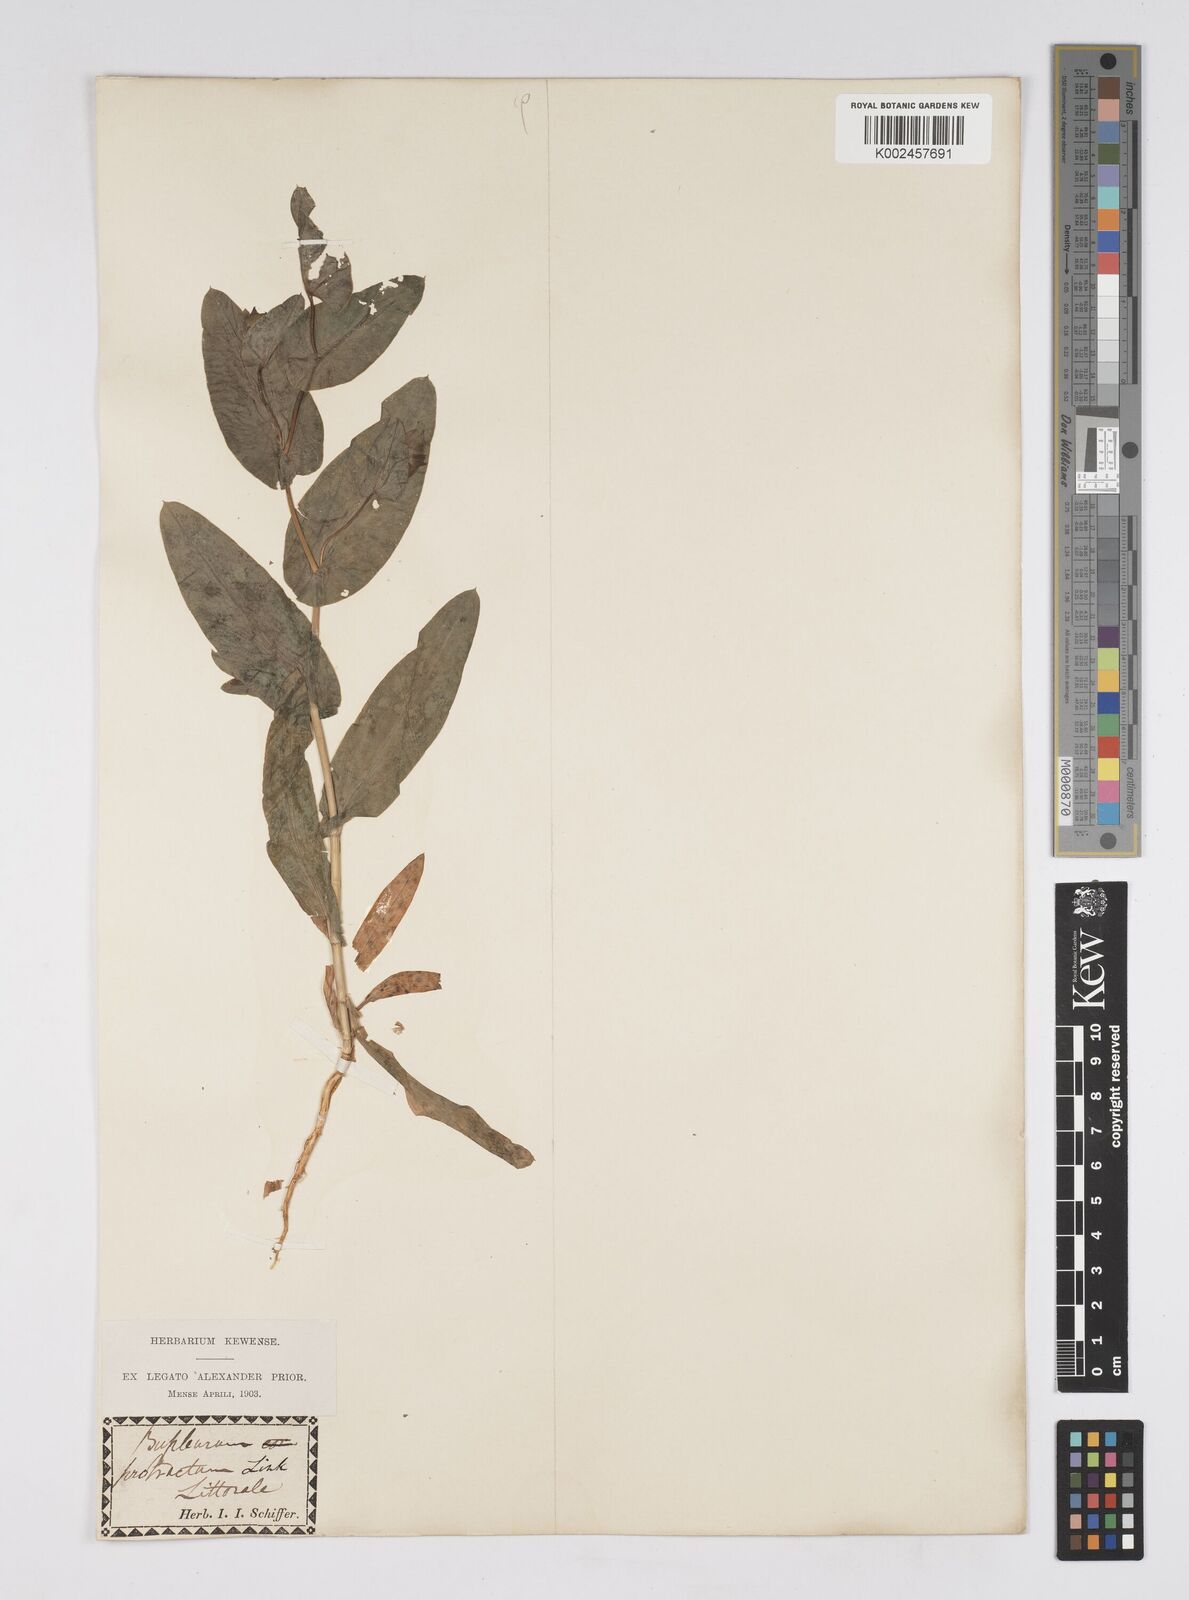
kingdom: Plantae
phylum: Tracheophyta
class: Magnoliopsida
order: Apiales
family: Apiaceae
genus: Bupleurum
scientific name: Bupleurum lancifolium
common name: False thorow-wax
